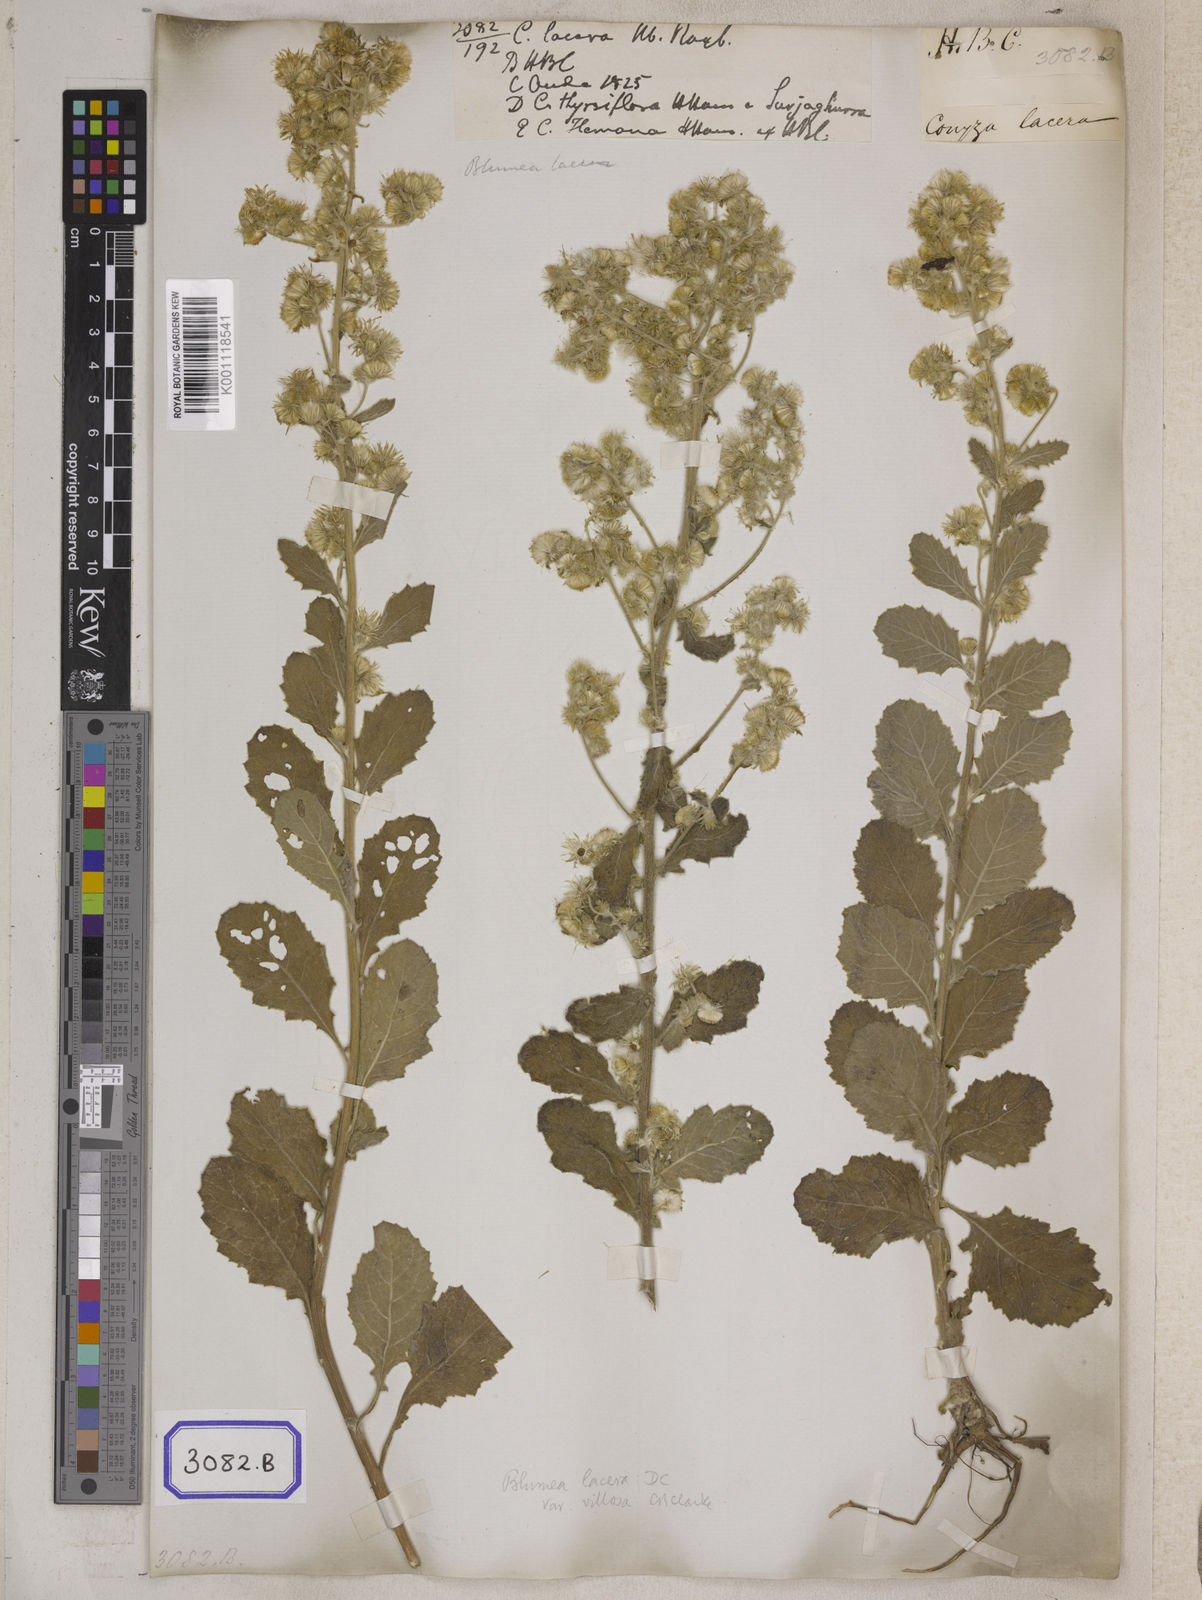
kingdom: Plantae
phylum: Tracheophyta
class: Magnoliopsida
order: Asterales
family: Asteraceae
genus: Blumea
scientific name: Blumea lacera
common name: Malay blumea
